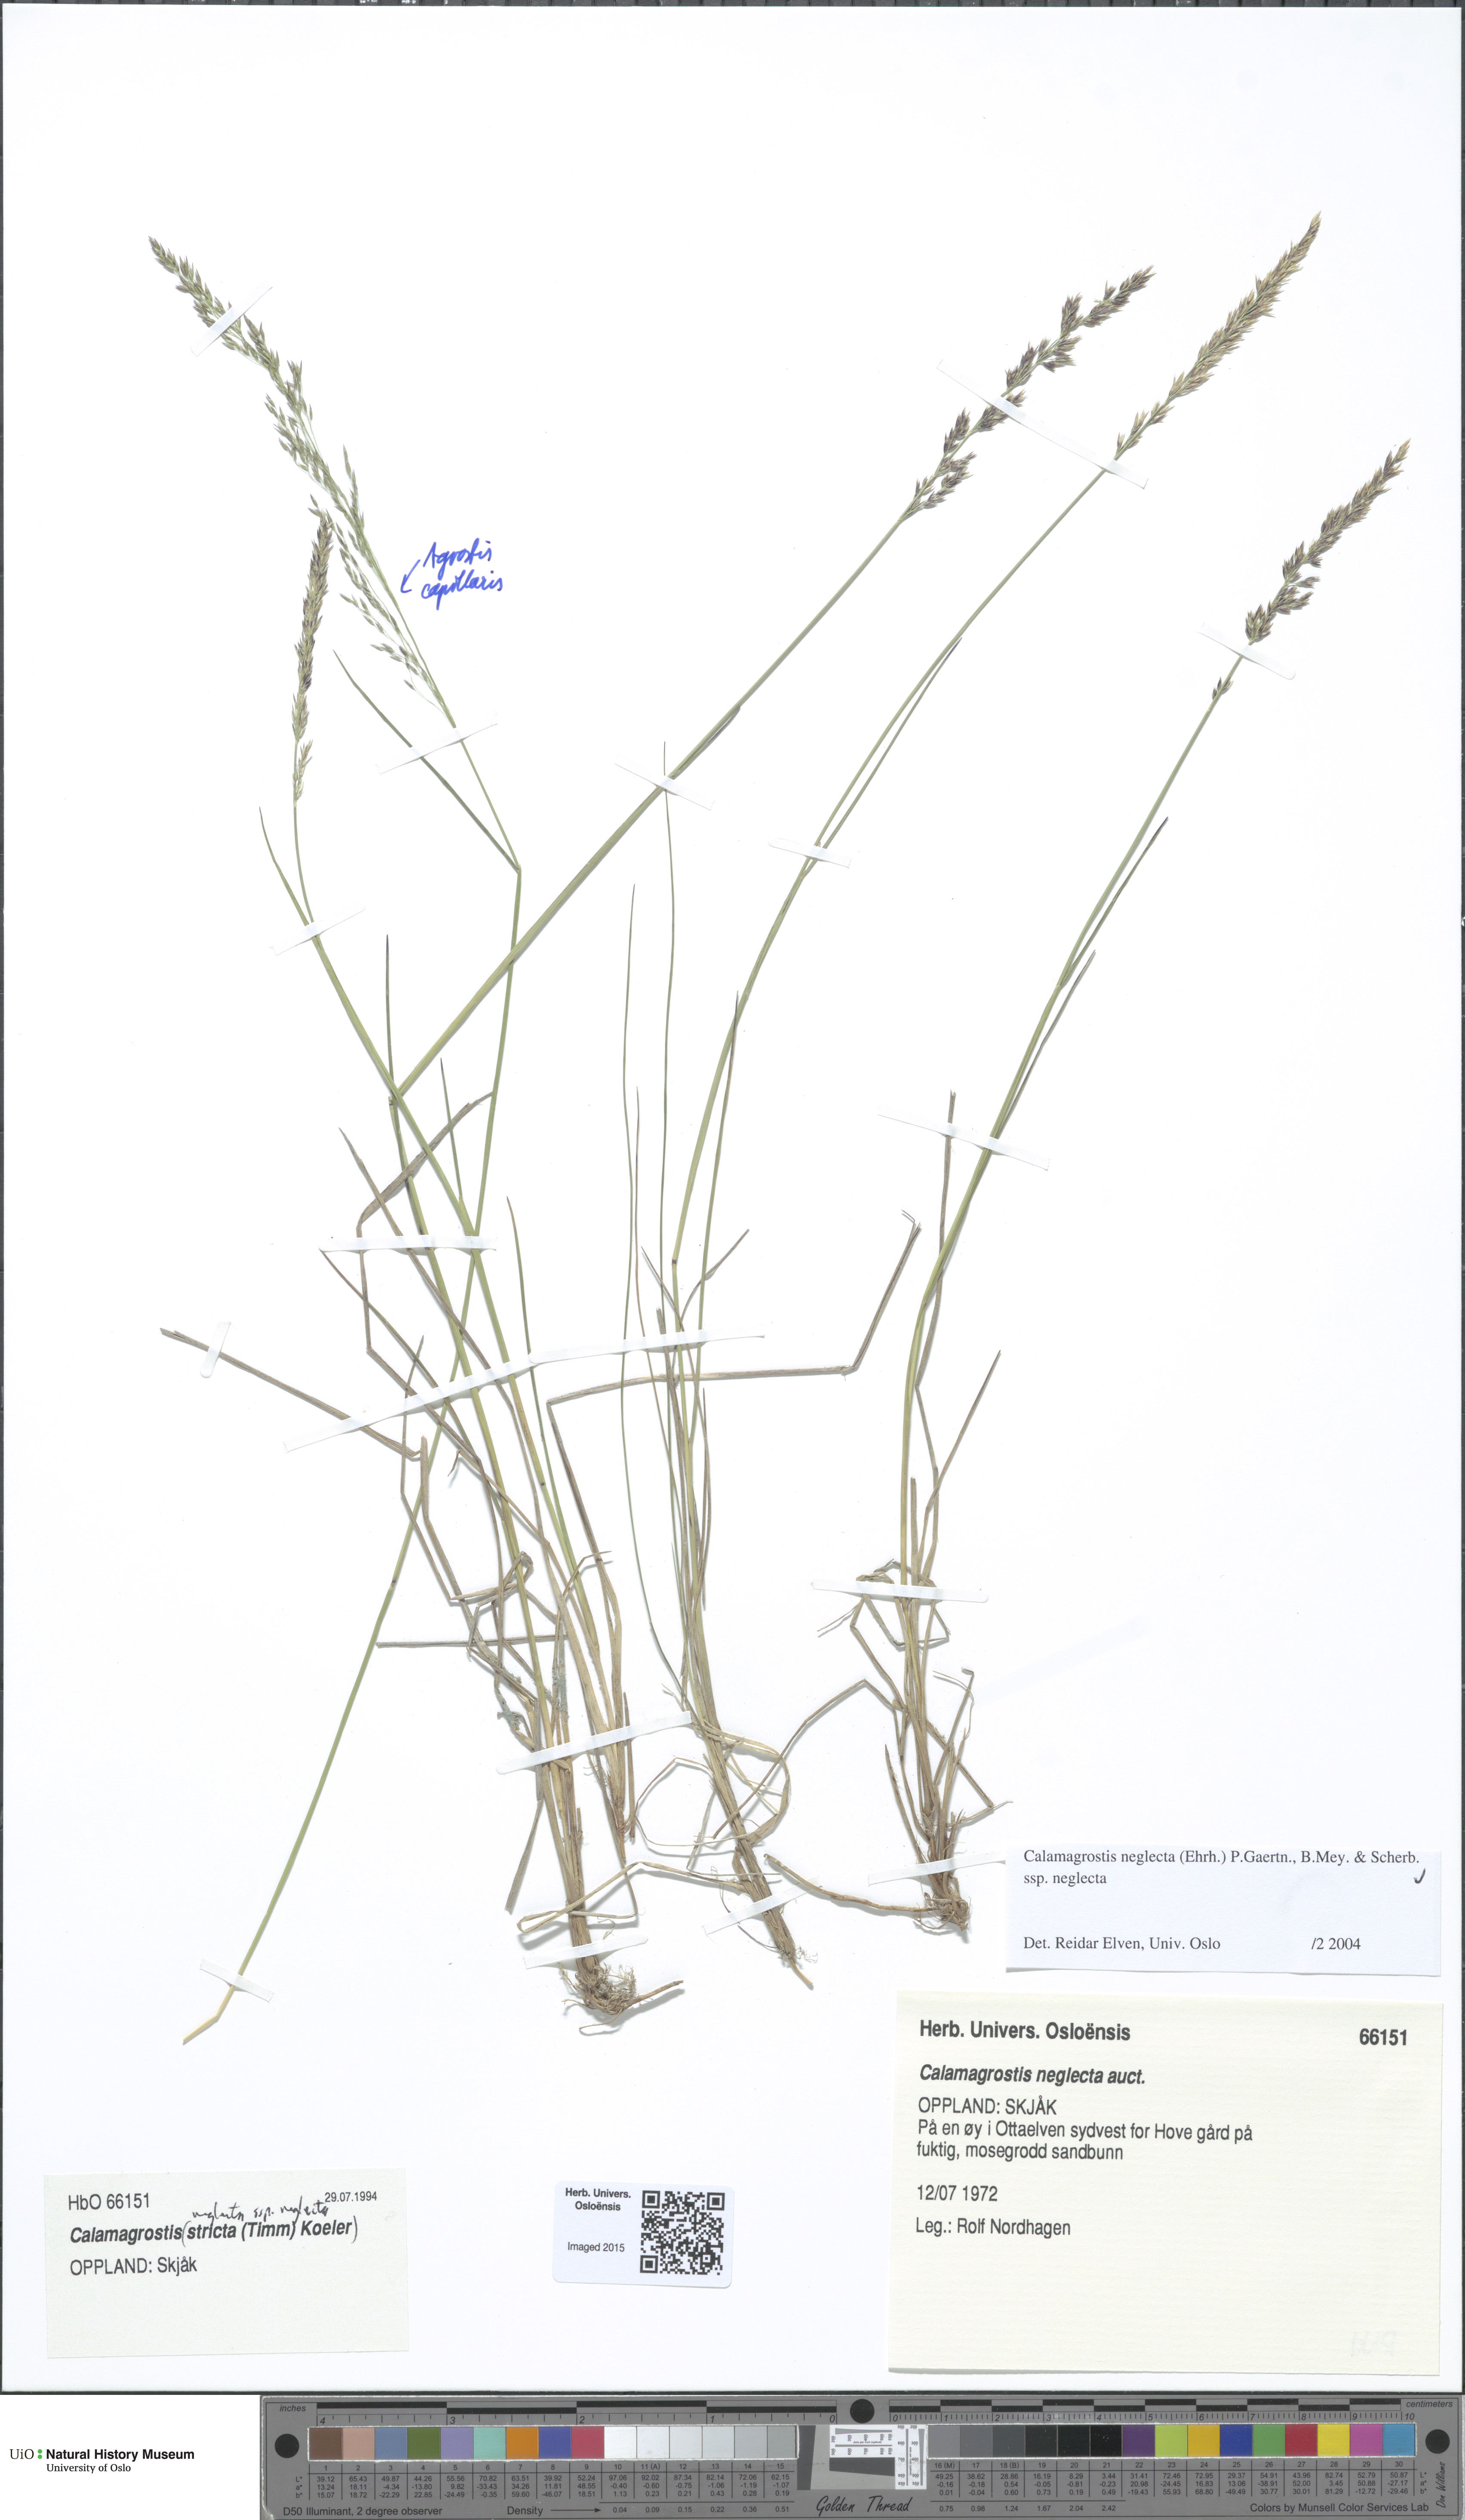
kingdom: Plantae
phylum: Tracheophyta
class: Liliopsida
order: Poales
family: Poaceae
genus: Achnatherum
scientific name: Achnatherum calamagrostis
